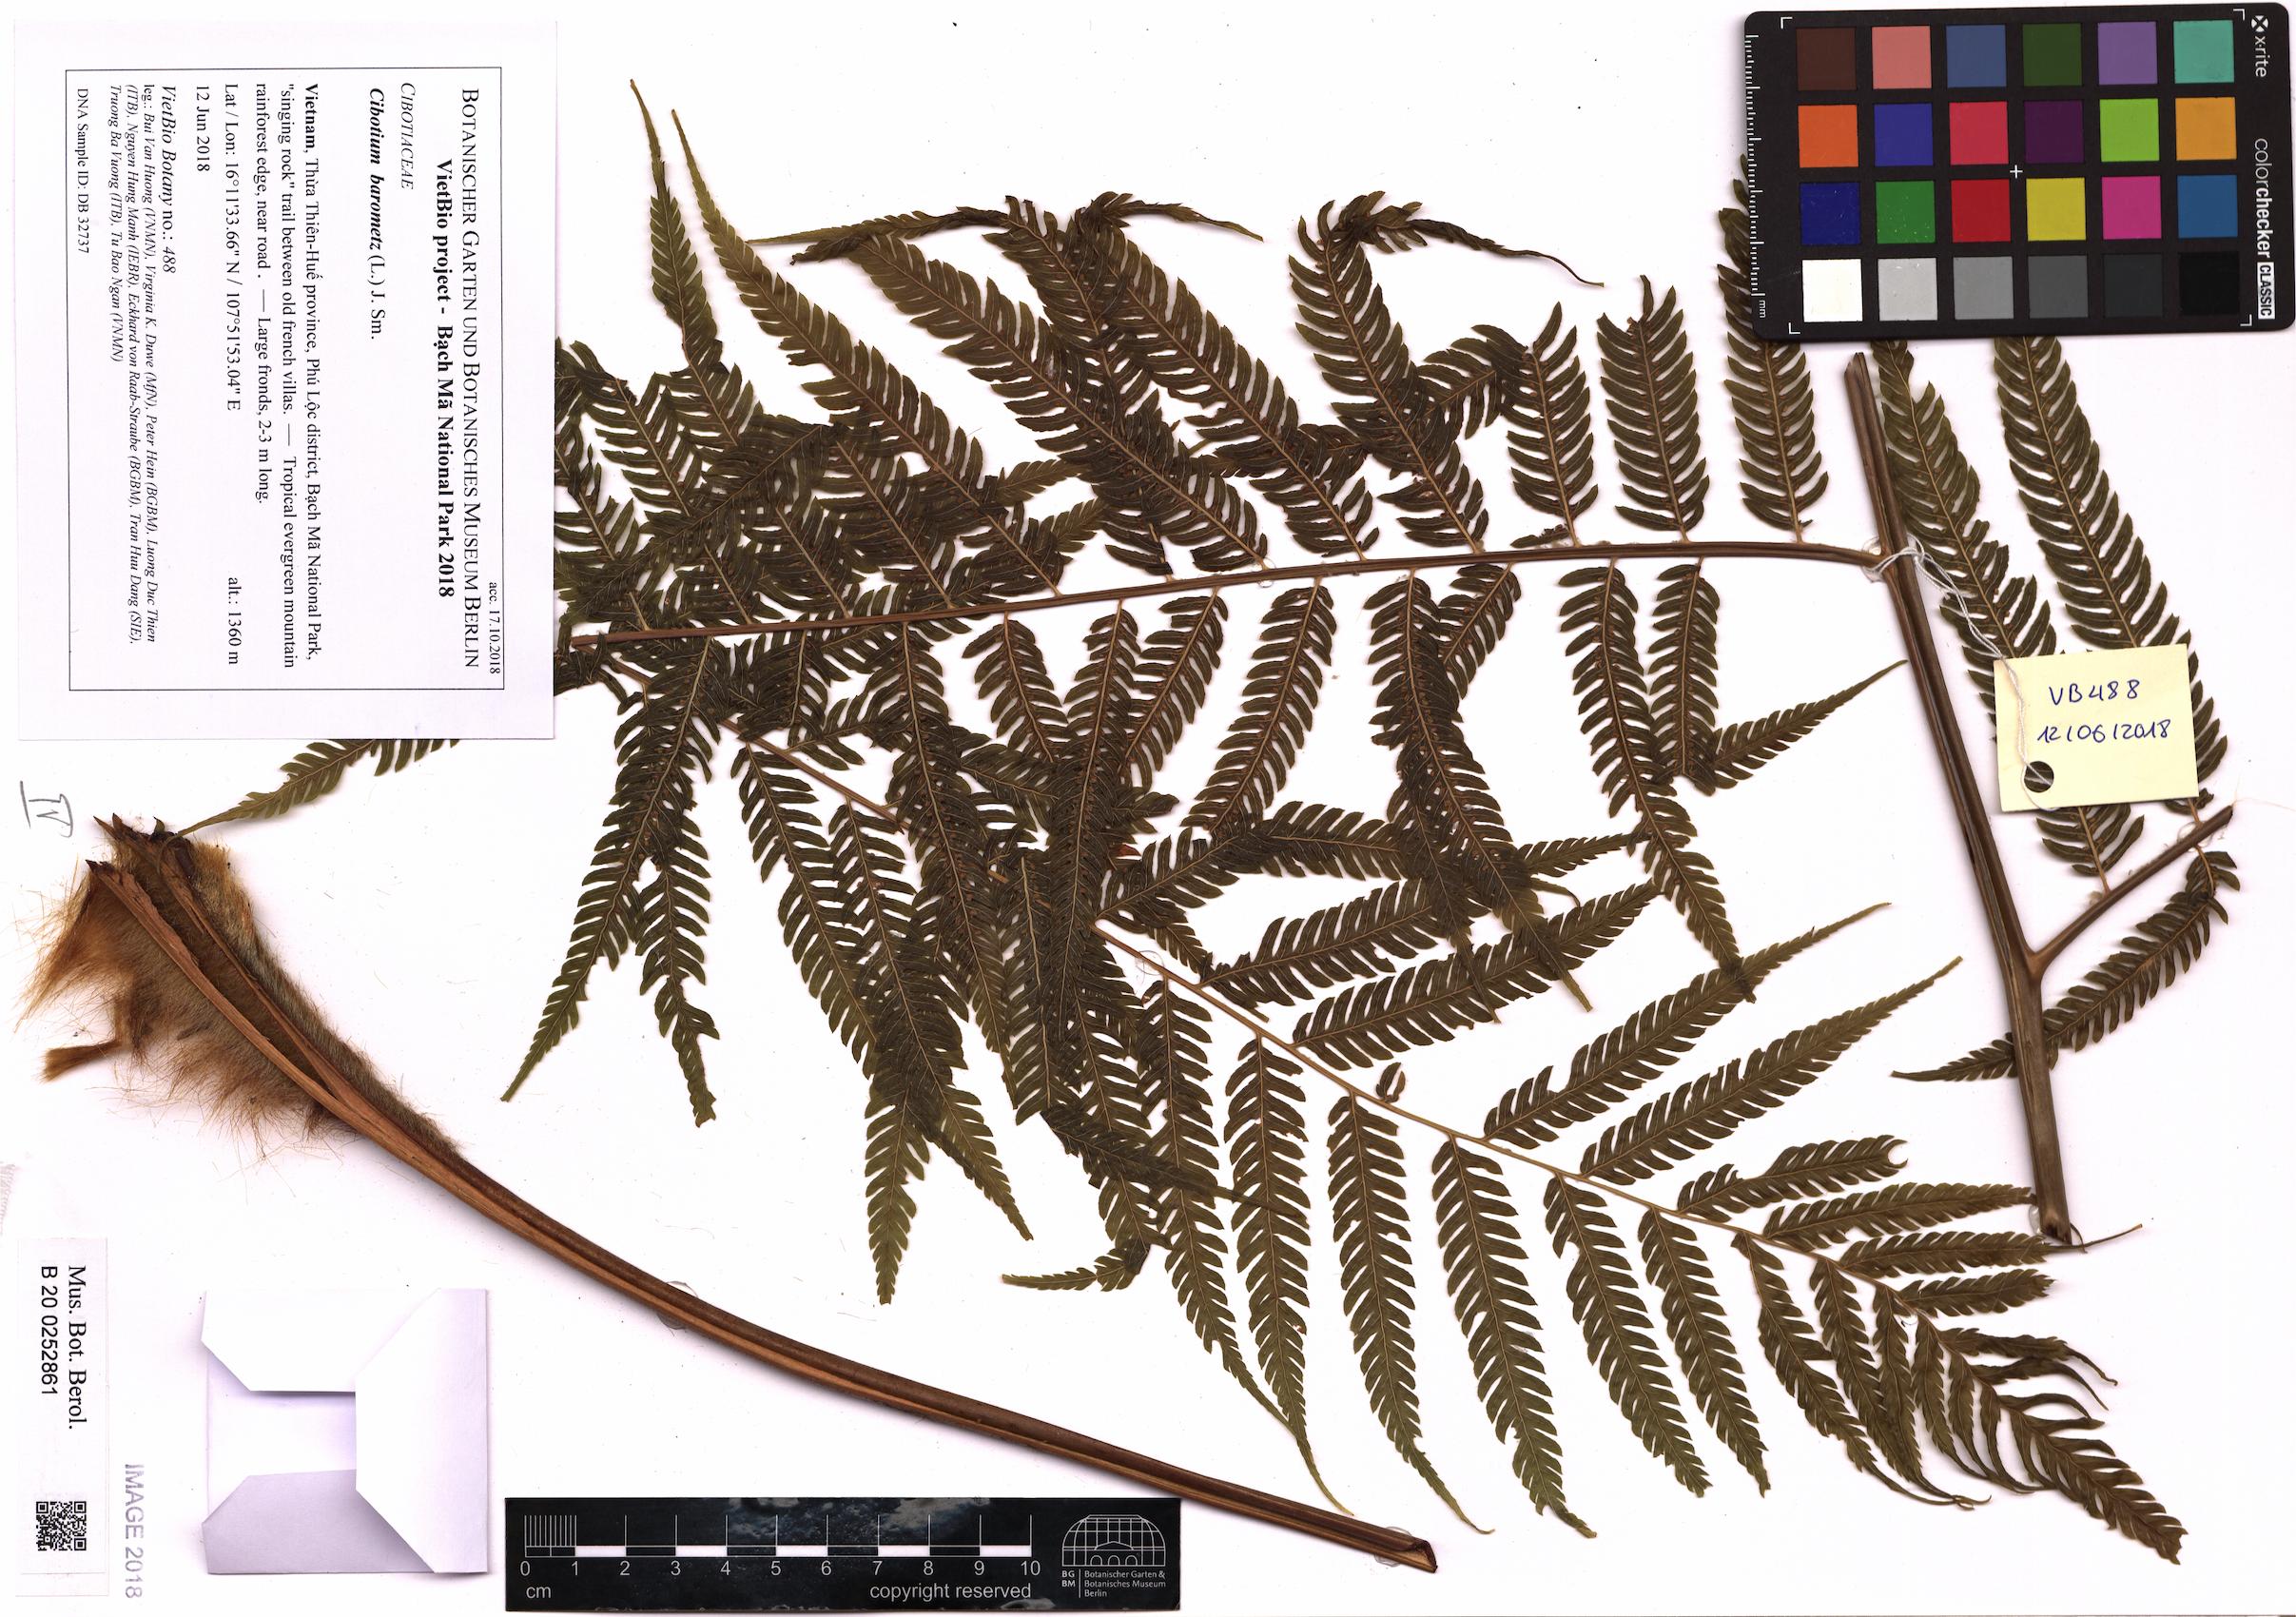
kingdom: Plantae
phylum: Tracheophyta
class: Polypodiopsida
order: Cyatheales
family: Cibotiaceae
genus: Cibotium
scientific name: Cibotium barometz
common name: Scythian-lamb
